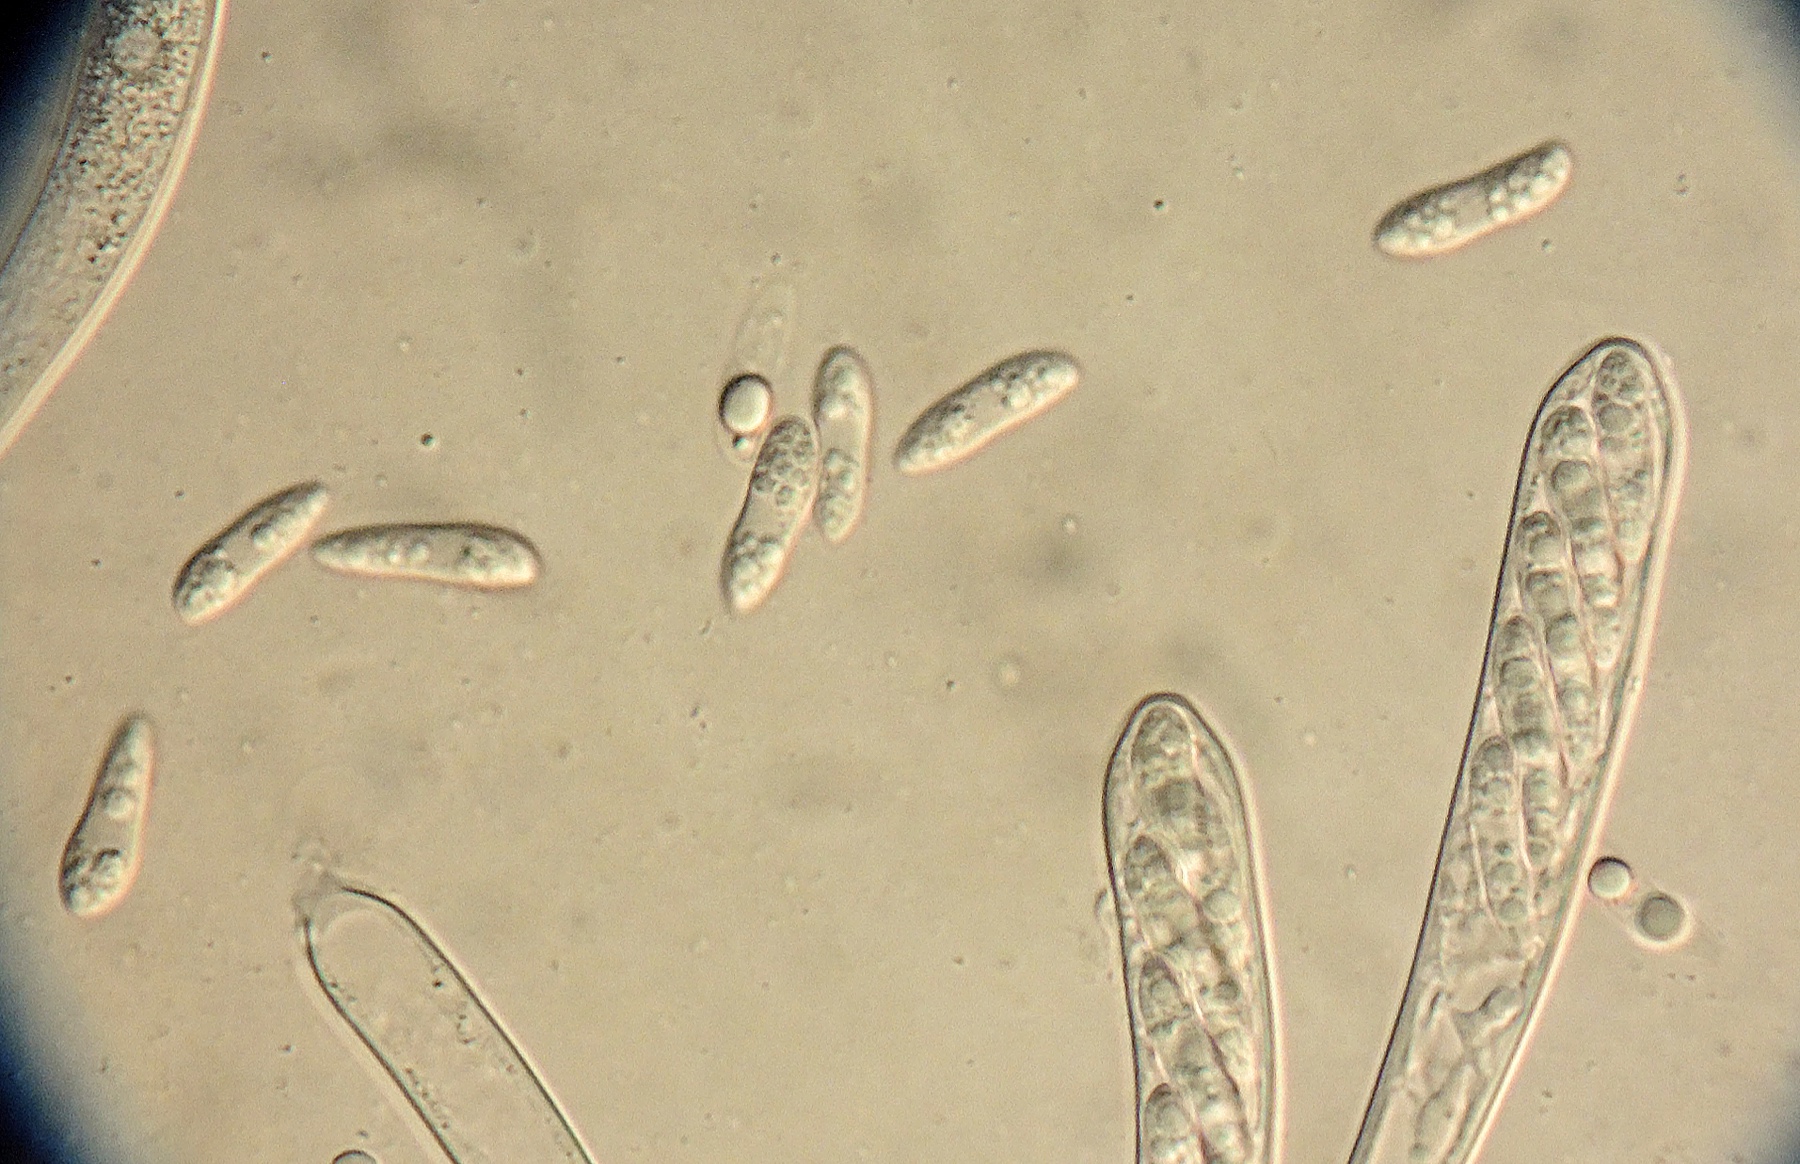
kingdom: Fungi
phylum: Ascomycota
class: Leotiomycetes
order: Helotiales
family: Helotiaceae
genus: Hymenoscyphus
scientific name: Hymenoscyphus caudatus
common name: blad-stilkskive
